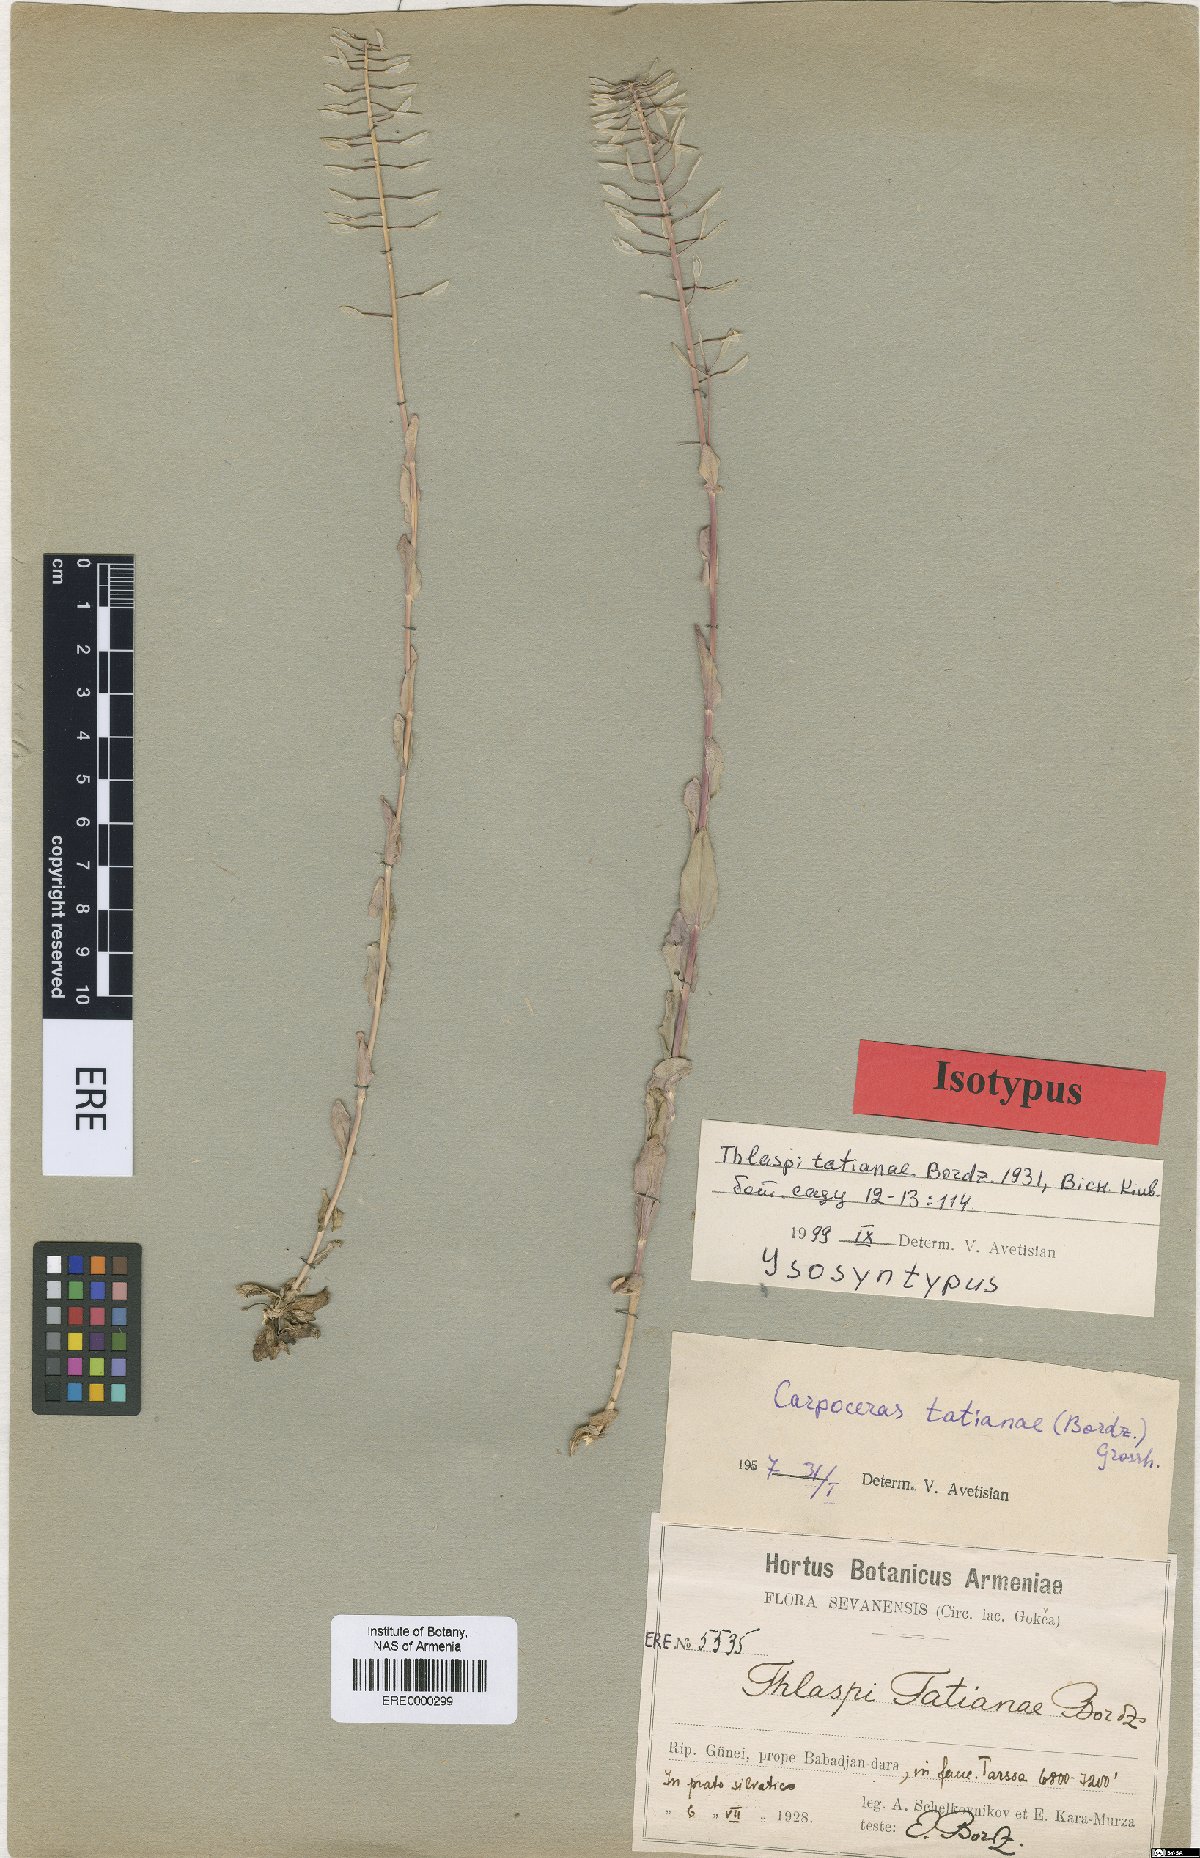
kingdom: Plantae
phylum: Tracheophyta
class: Magnoliopsida
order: Brassicales
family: Brassicaceae
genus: Noccaea
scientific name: Noccaea tatianae
